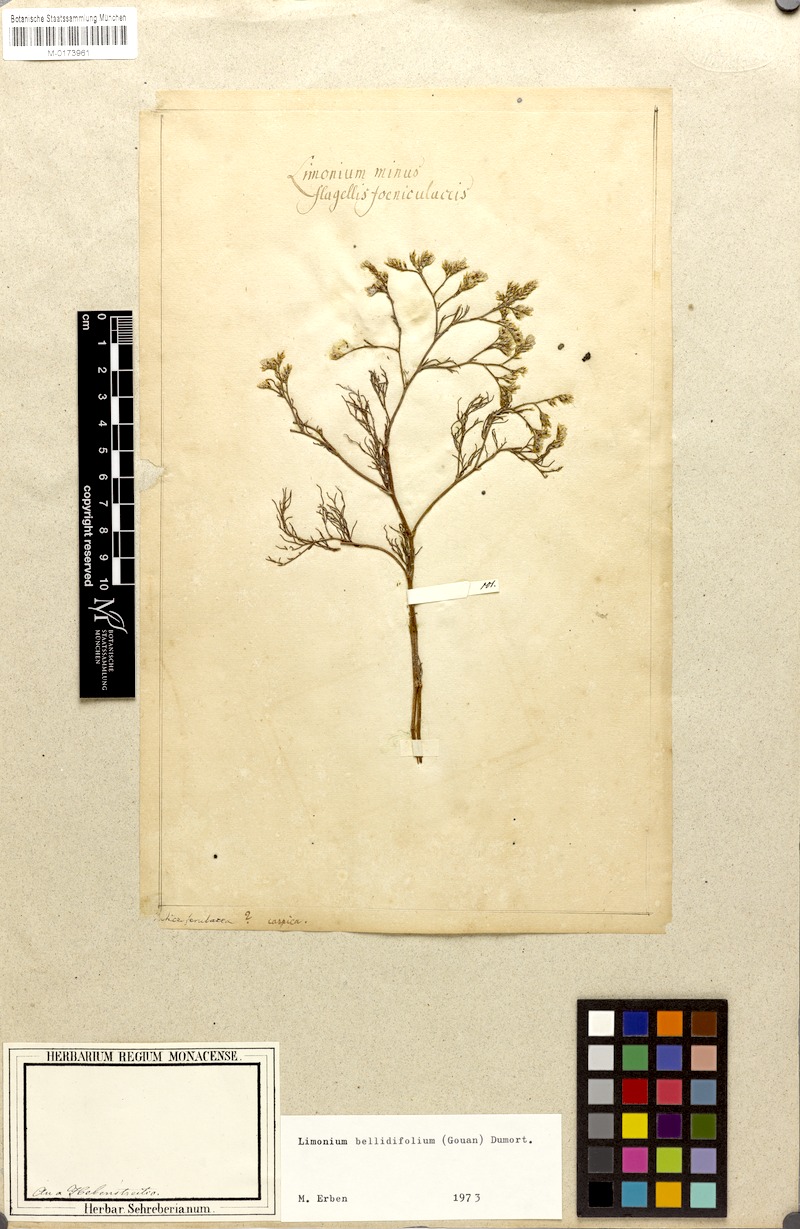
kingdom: Plantae
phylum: Tracheophyta
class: Magnoliopsida
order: Caryophyllales
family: Plumbaginaceae
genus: Limonium
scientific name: Limonium bellidifolium
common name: Matted sea-lavender
